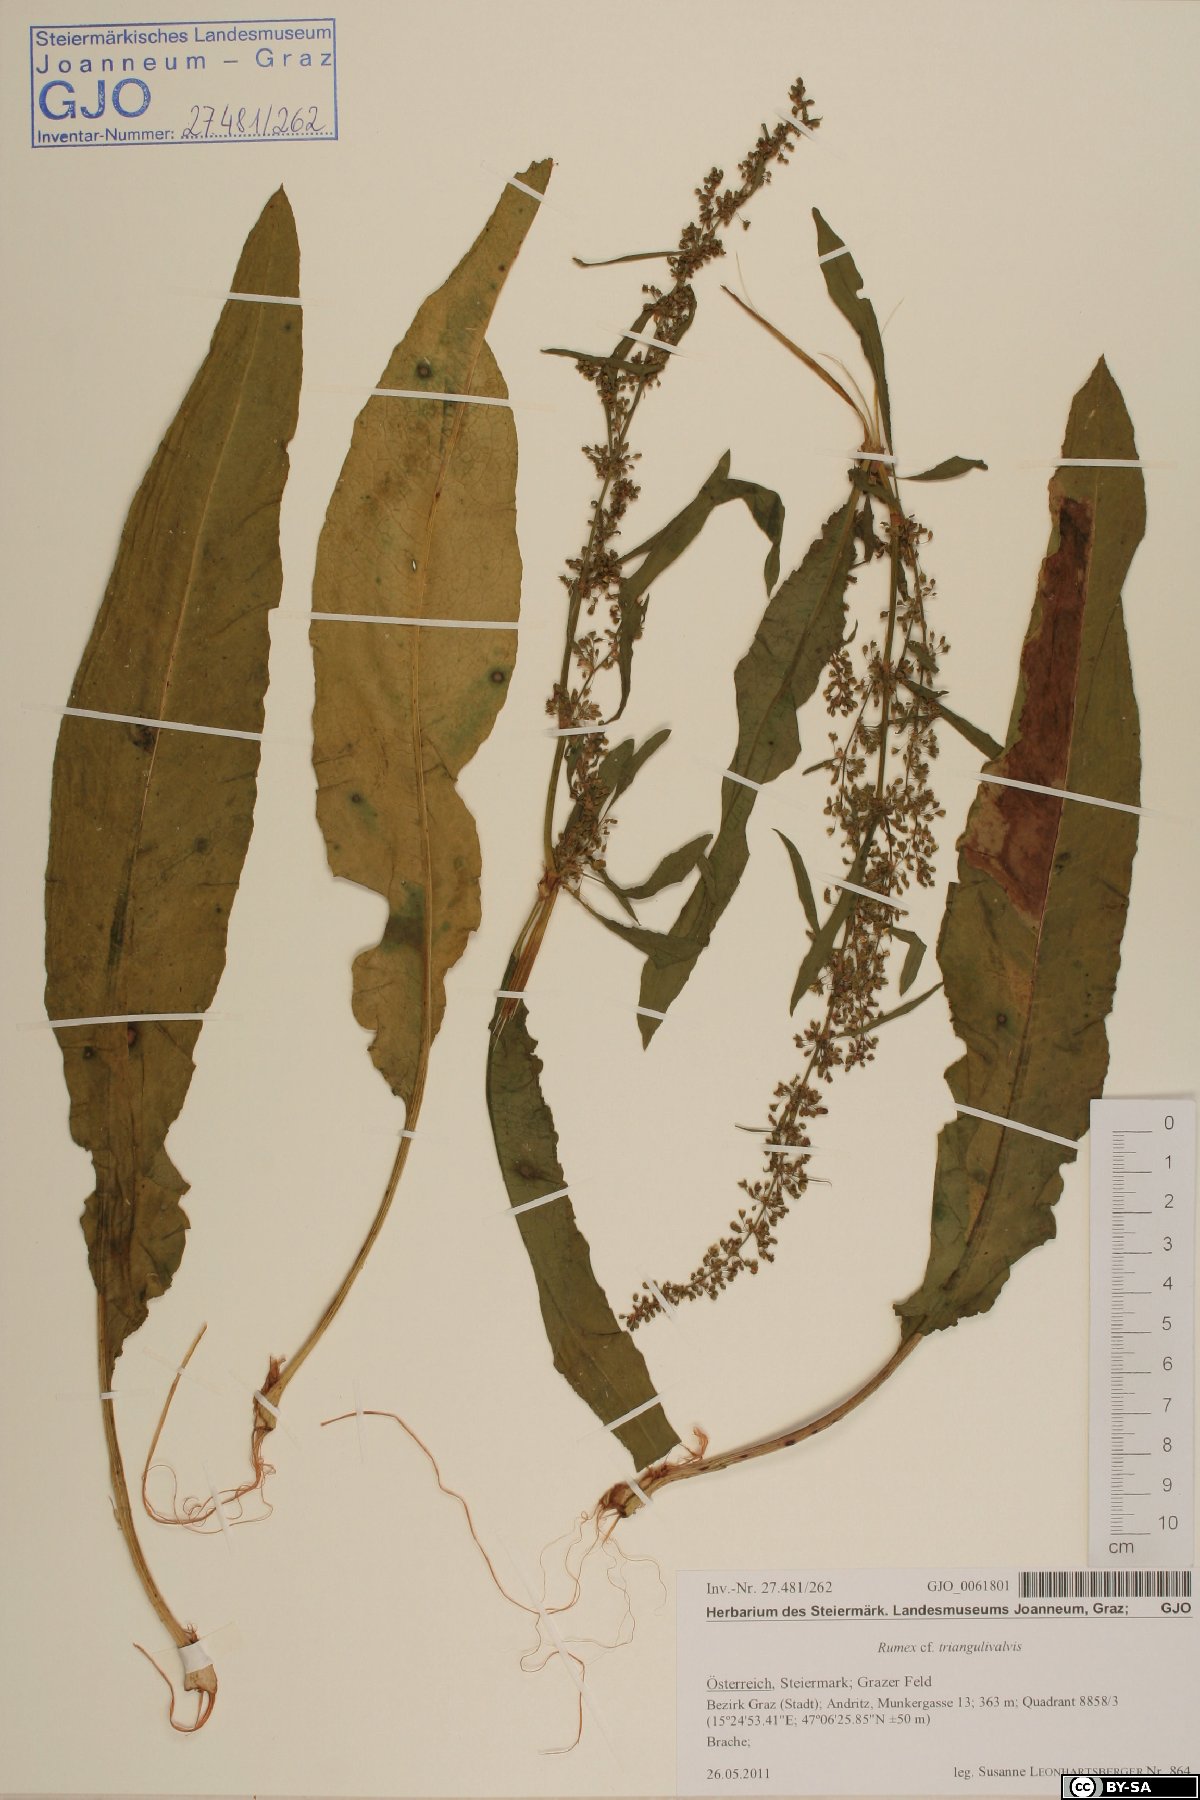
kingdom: Plantae
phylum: Tracheophyta
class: Magnoliopsida
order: Caryophyllales
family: Polygonaceae
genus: Rumex
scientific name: Rumex triangulivalvis
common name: Triangular-valve dock
